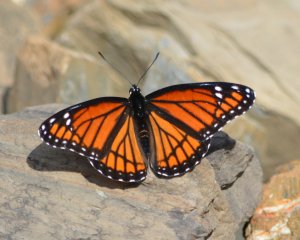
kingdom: Animalia
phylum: Arthropoda
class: Insecta
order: Lepidoptera
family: Nymphalidae
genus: Limenitis
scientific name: Limenitis archippus
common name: Viceroy
